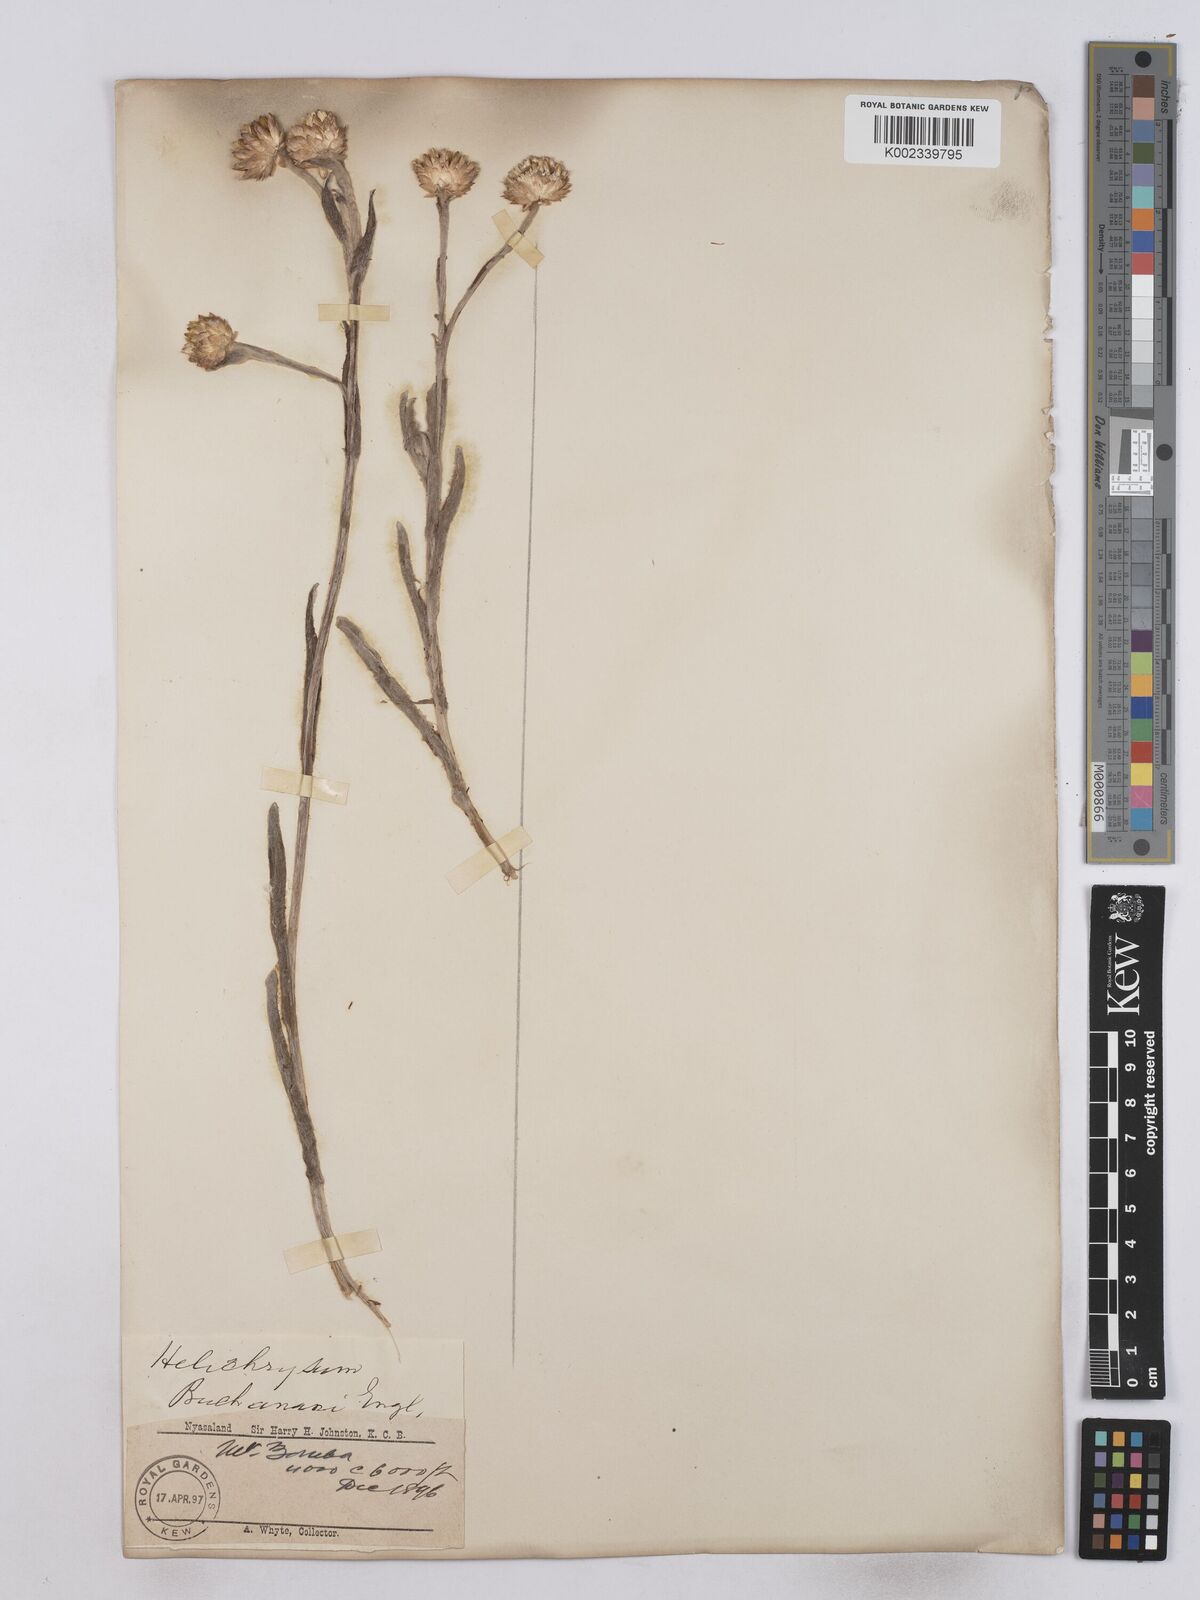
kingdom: Plantae
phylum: Tracheophyta
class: Magnoliopsida
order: Asterales
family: Asteraceae
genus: Helichrysum
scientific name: Helichrysum nitens
